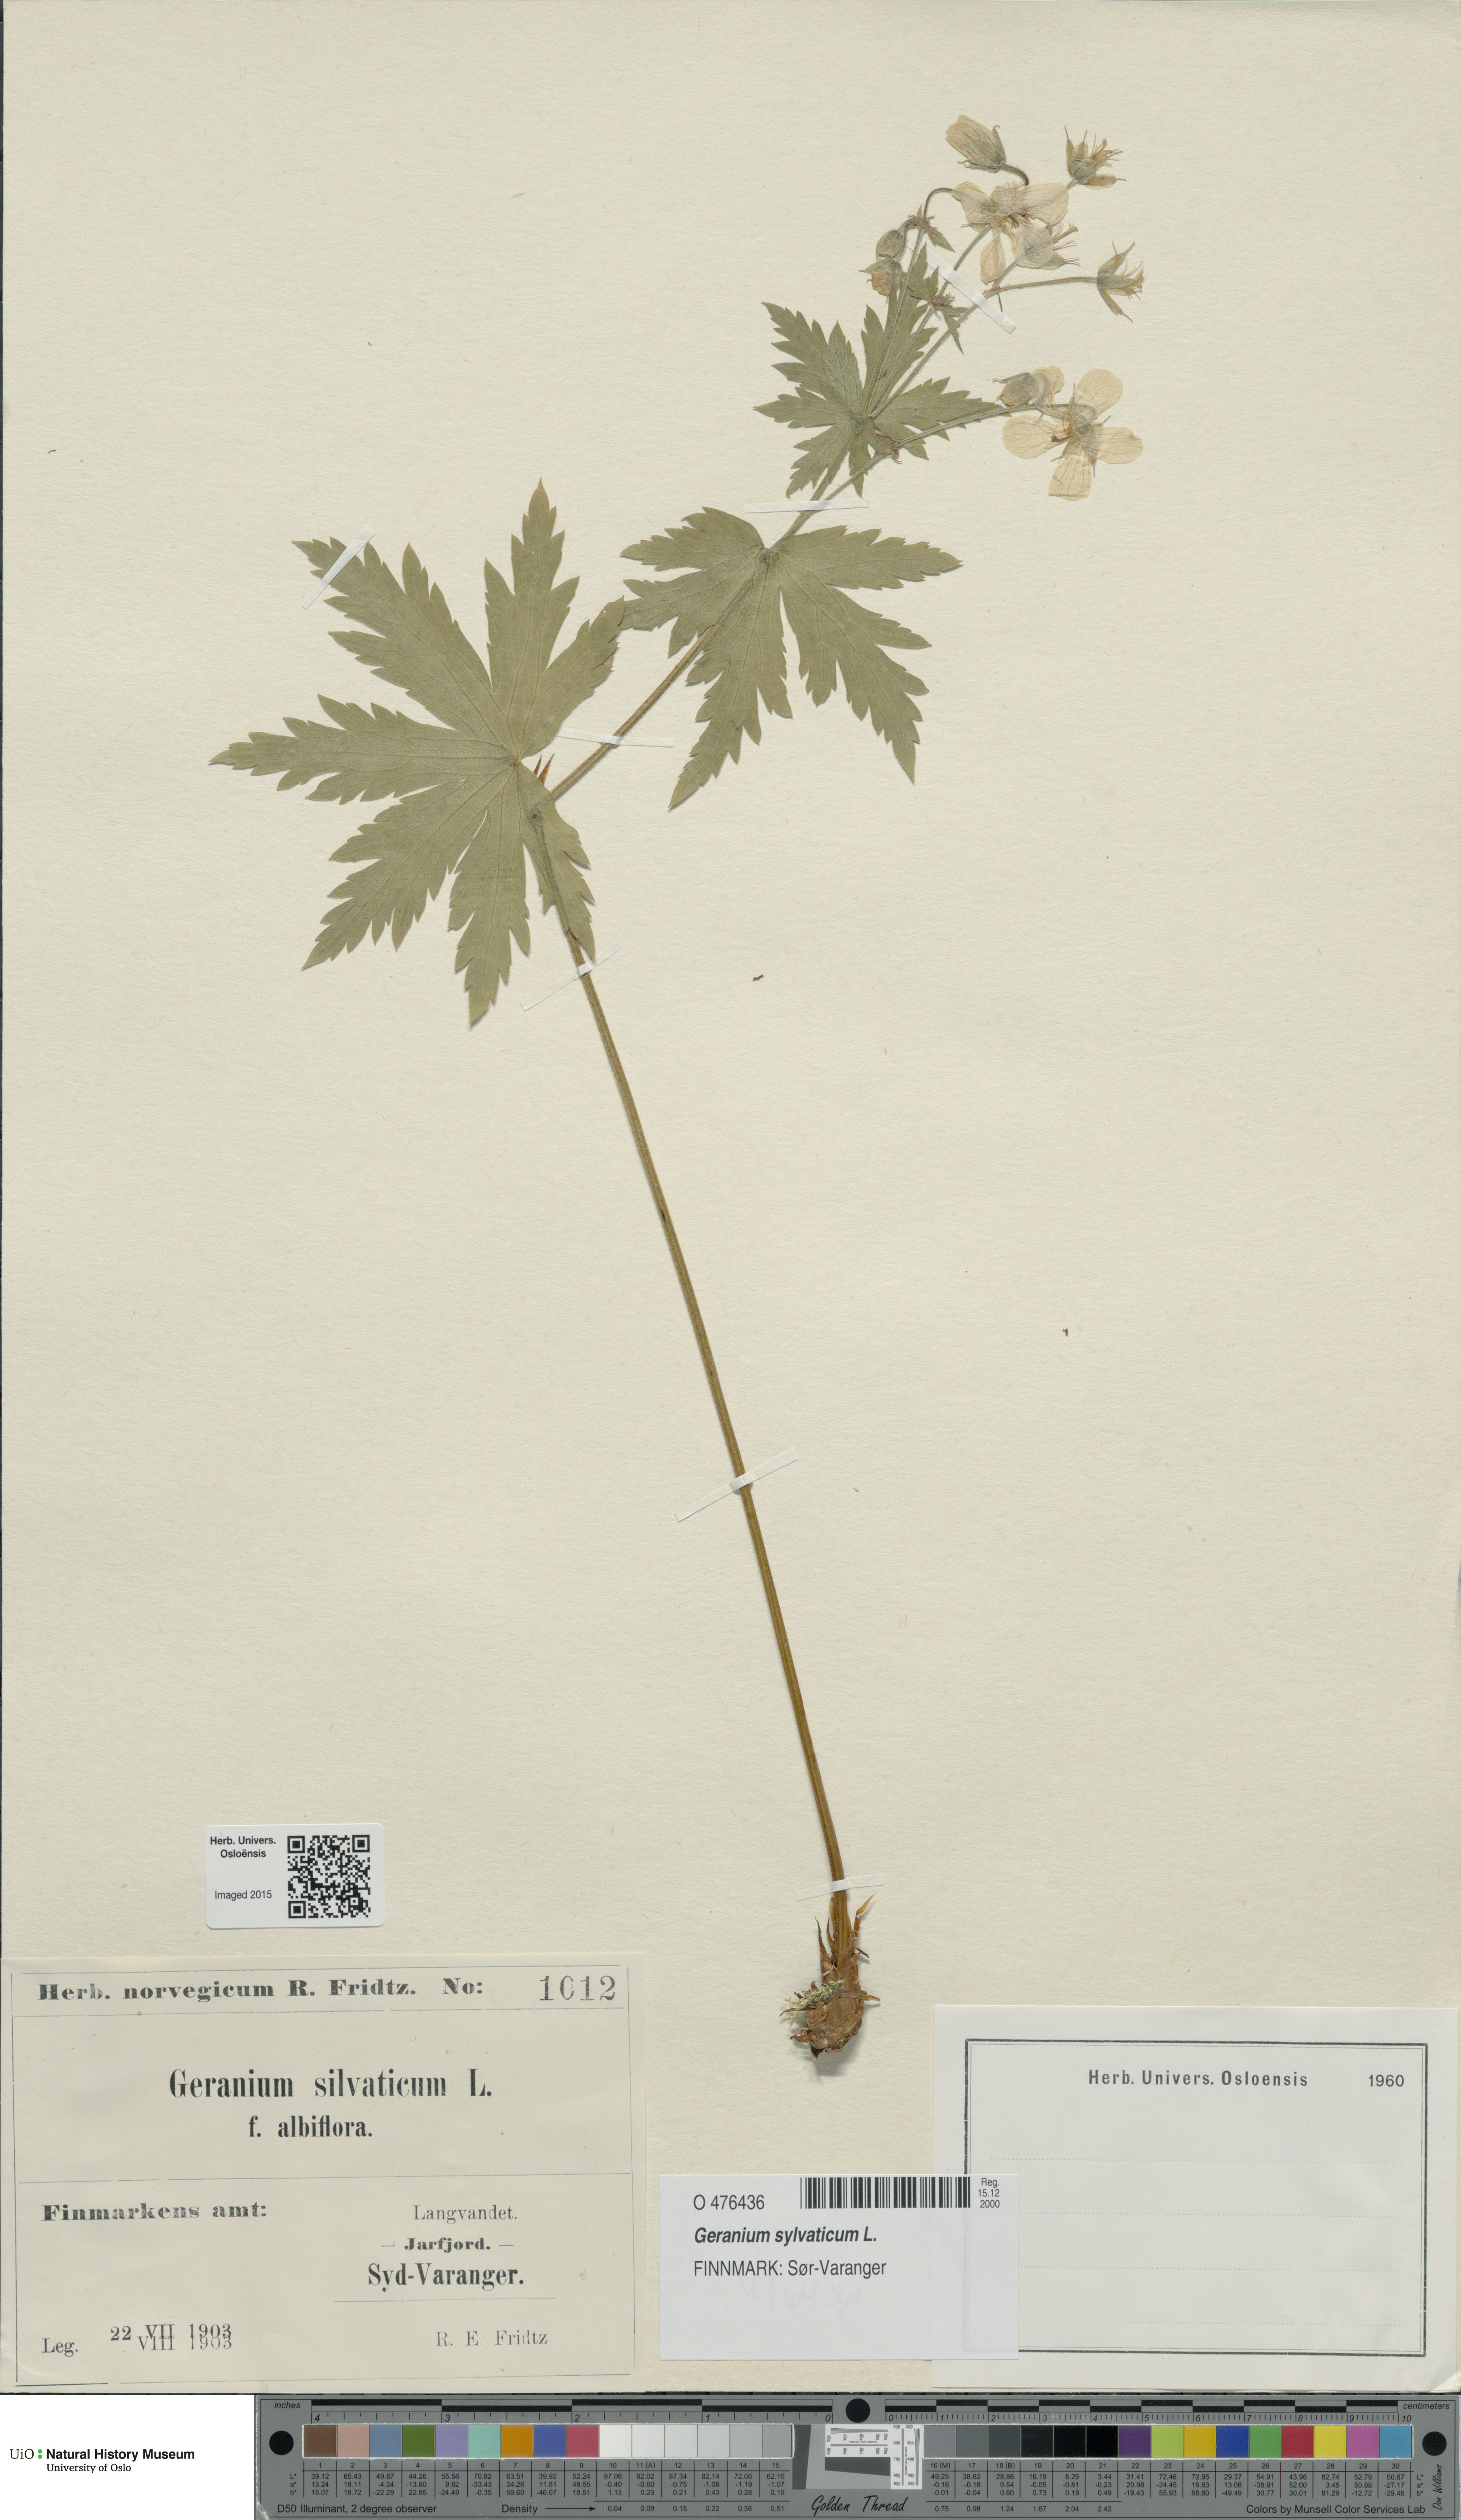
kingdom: Plantae
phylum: Tracheophyta
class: Magnoliopsida
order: Geraniales
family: Geraniaceae
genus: Geranium
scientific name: Geranium sylvaticum
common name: Wood crane's-bill
